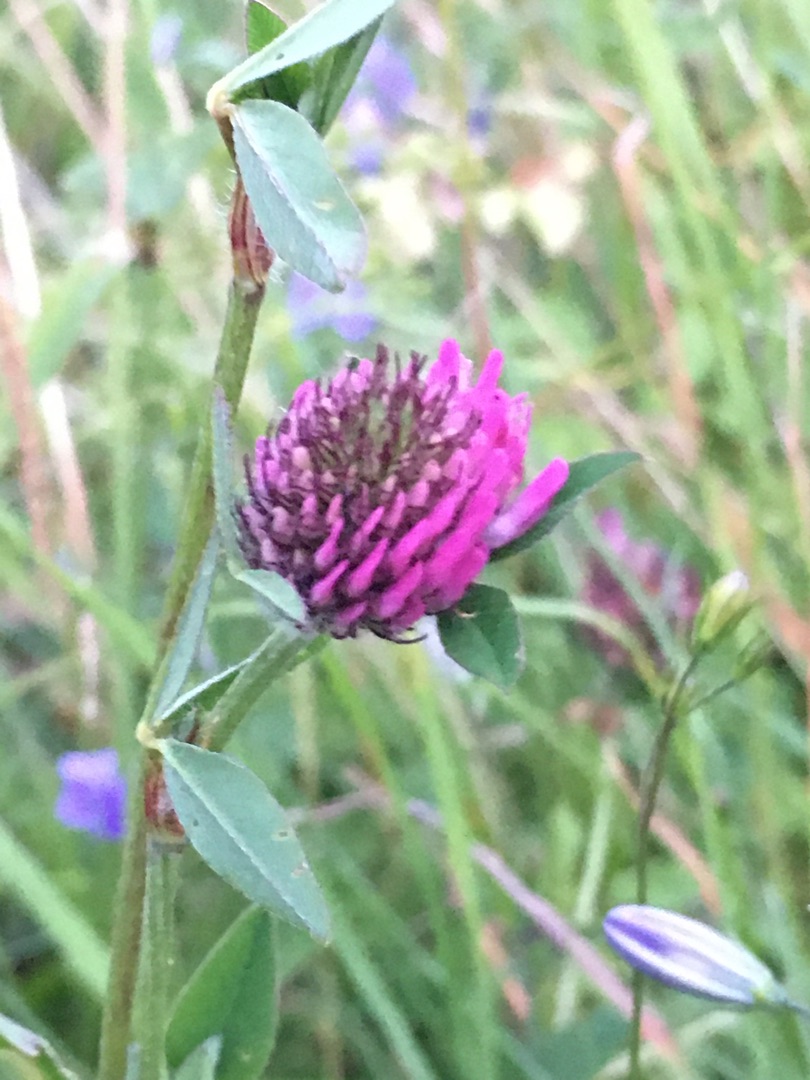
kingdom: Plantae
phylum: Tracheophyta
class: Magnoliopsida
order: Fabales
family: Fabaceae
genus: Trifolium
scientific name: Trifolium pratense
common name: Rød-kløver
